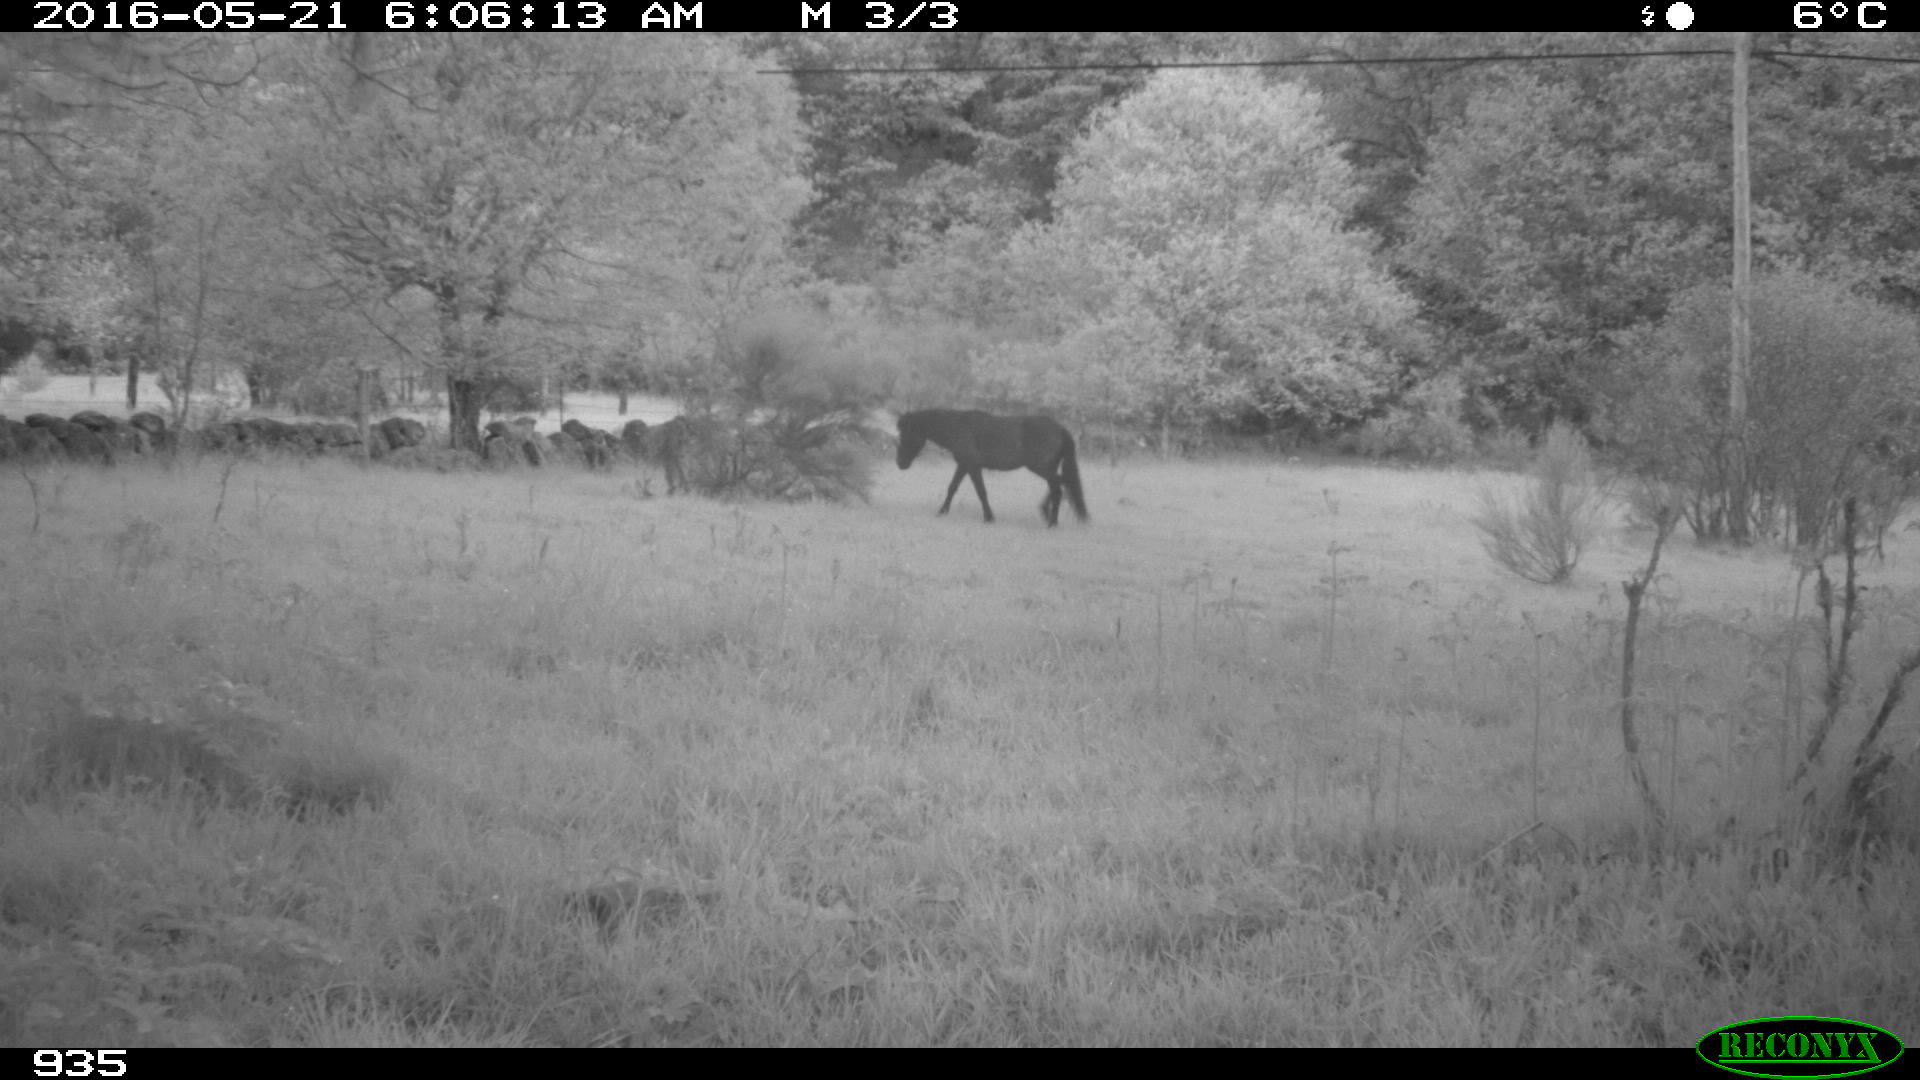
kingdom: Animalia
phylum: Chordata
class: Mammalia
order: Perissodactyla
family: Equidae
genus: Equus
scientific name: Equus caballus
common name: Horse
